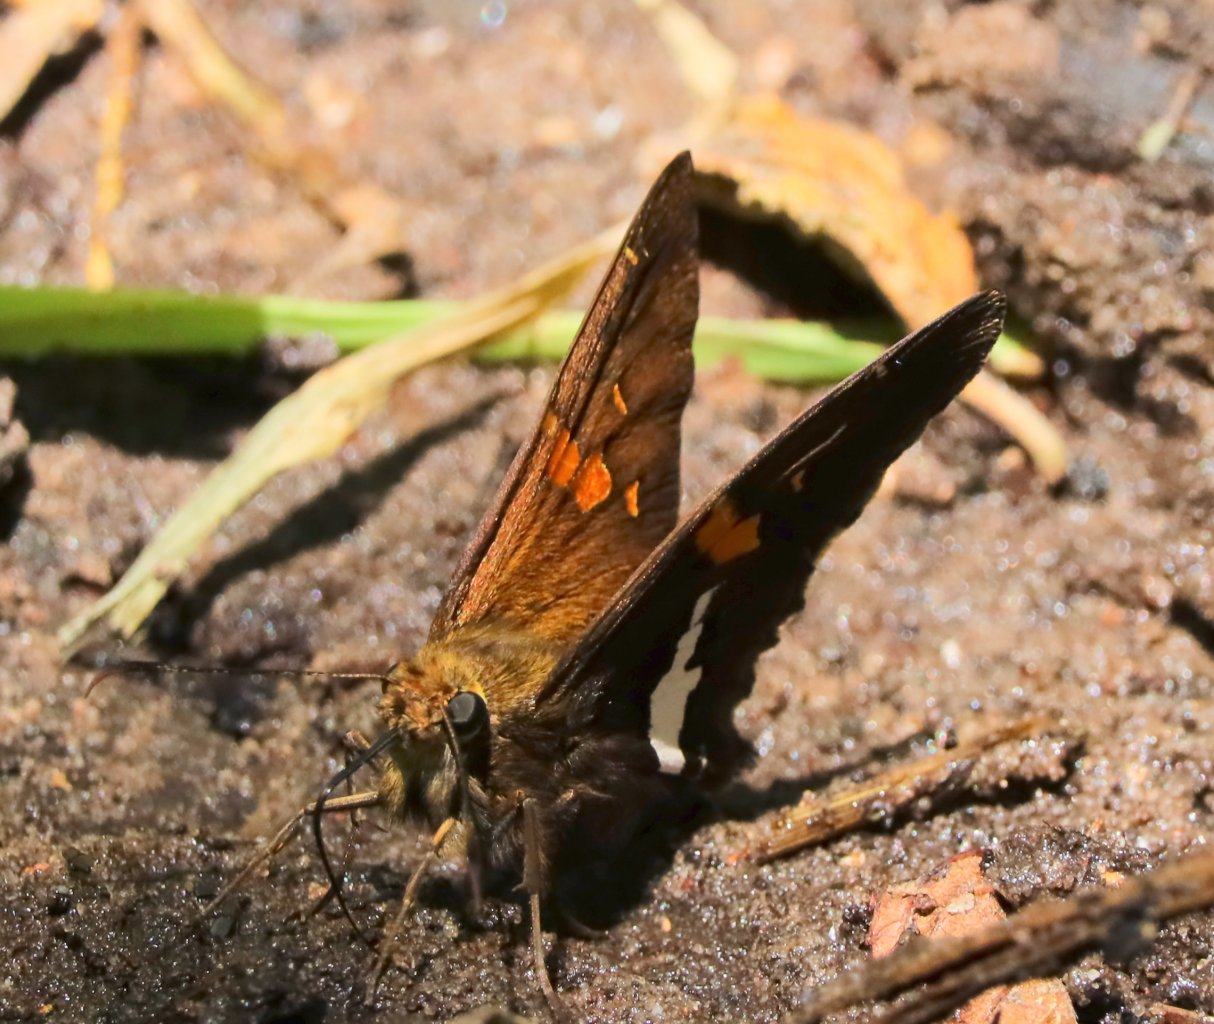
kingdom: Animalia
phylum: Arthropoda
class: Insecta
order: Lepidoptera
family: Hesperiidae
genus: Epargyreus
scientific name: Epargyreus clarus
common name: Silver-spotted Skipper
